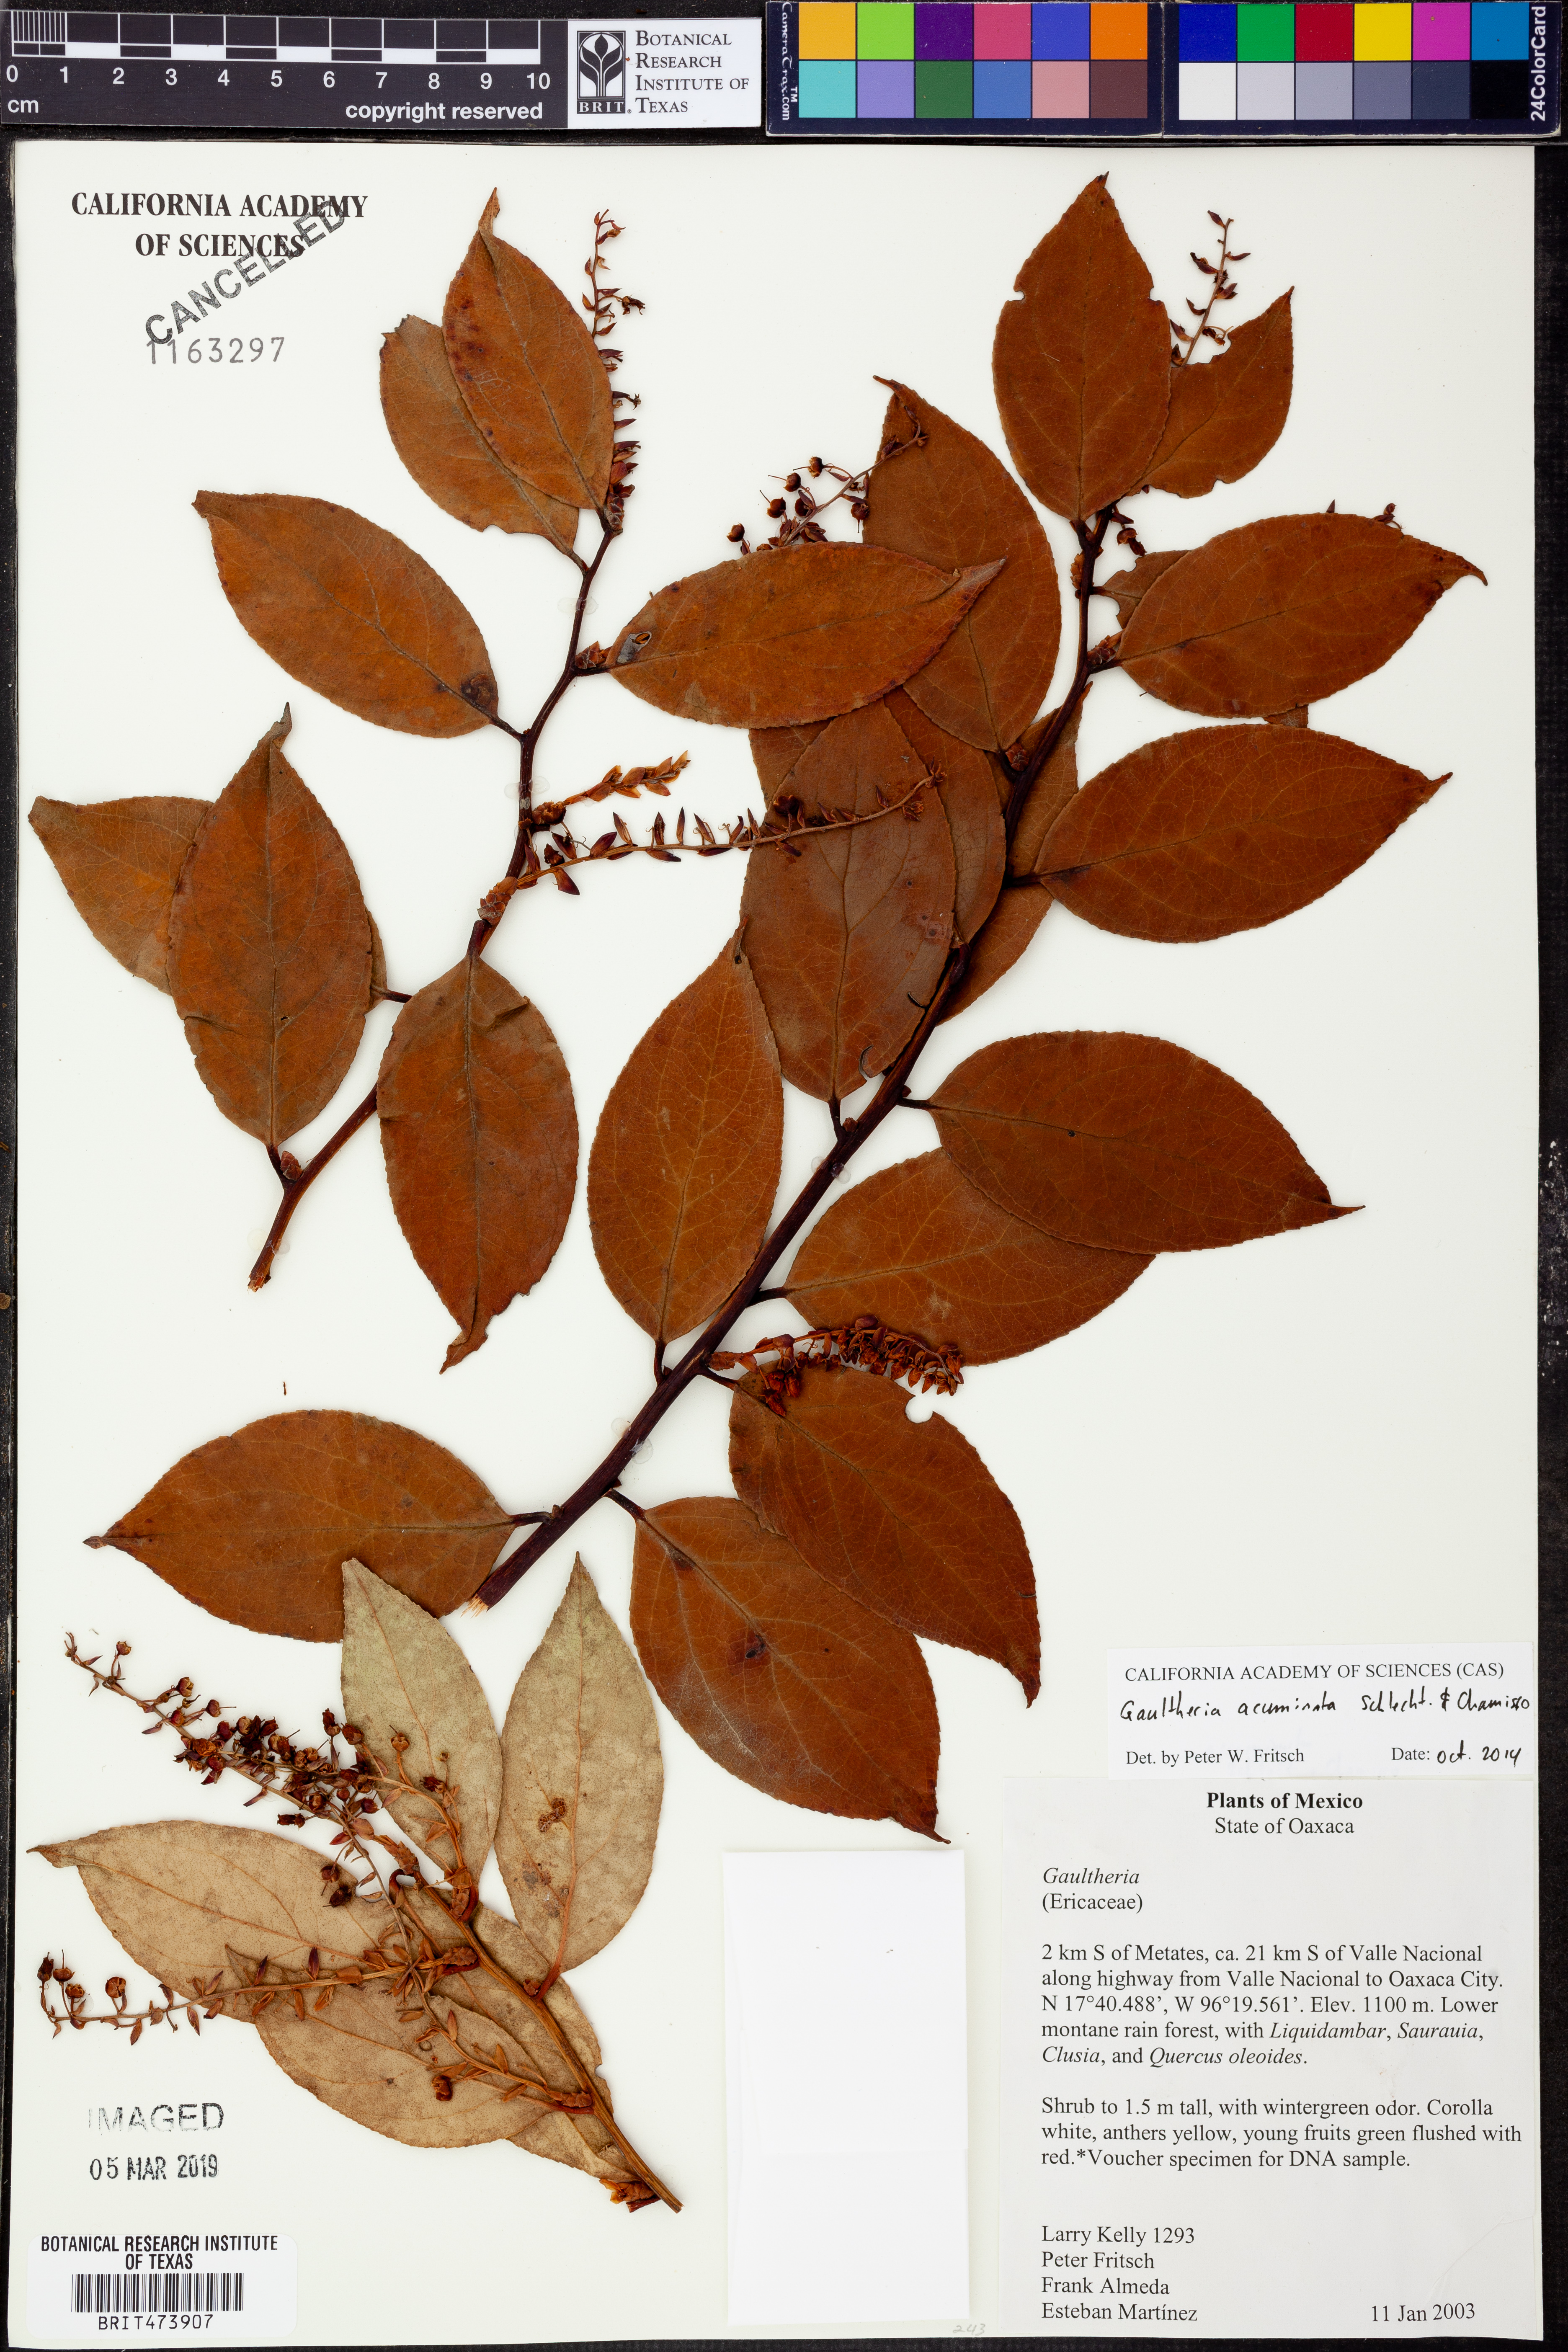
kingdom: Plantae
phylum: Tracheophyta
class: Magnoliopsida
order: Ericales
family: Ericaceae
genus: Gaultheria
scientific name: Gaultheria acuminata
